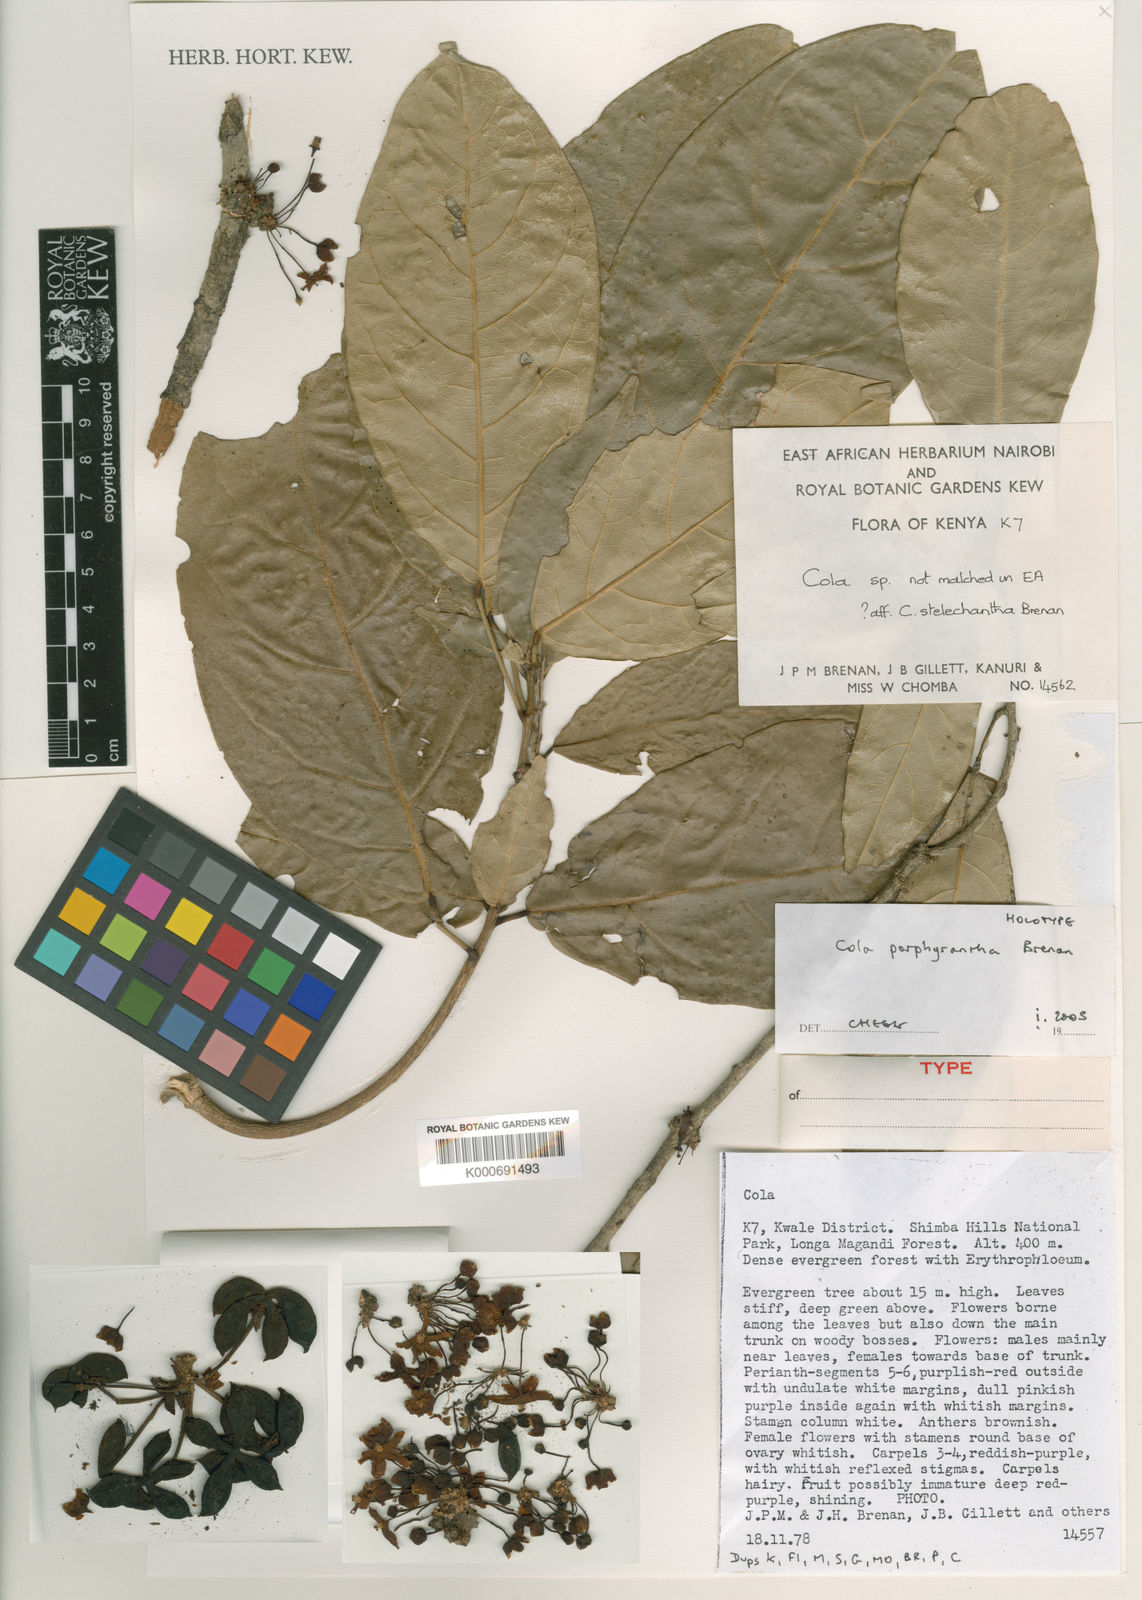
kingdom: Plantae
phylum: Tracheophyta
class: Magnoliopsida
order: Malvales
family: Malvaceae
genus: Cola
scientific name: Cola porphyrantha
